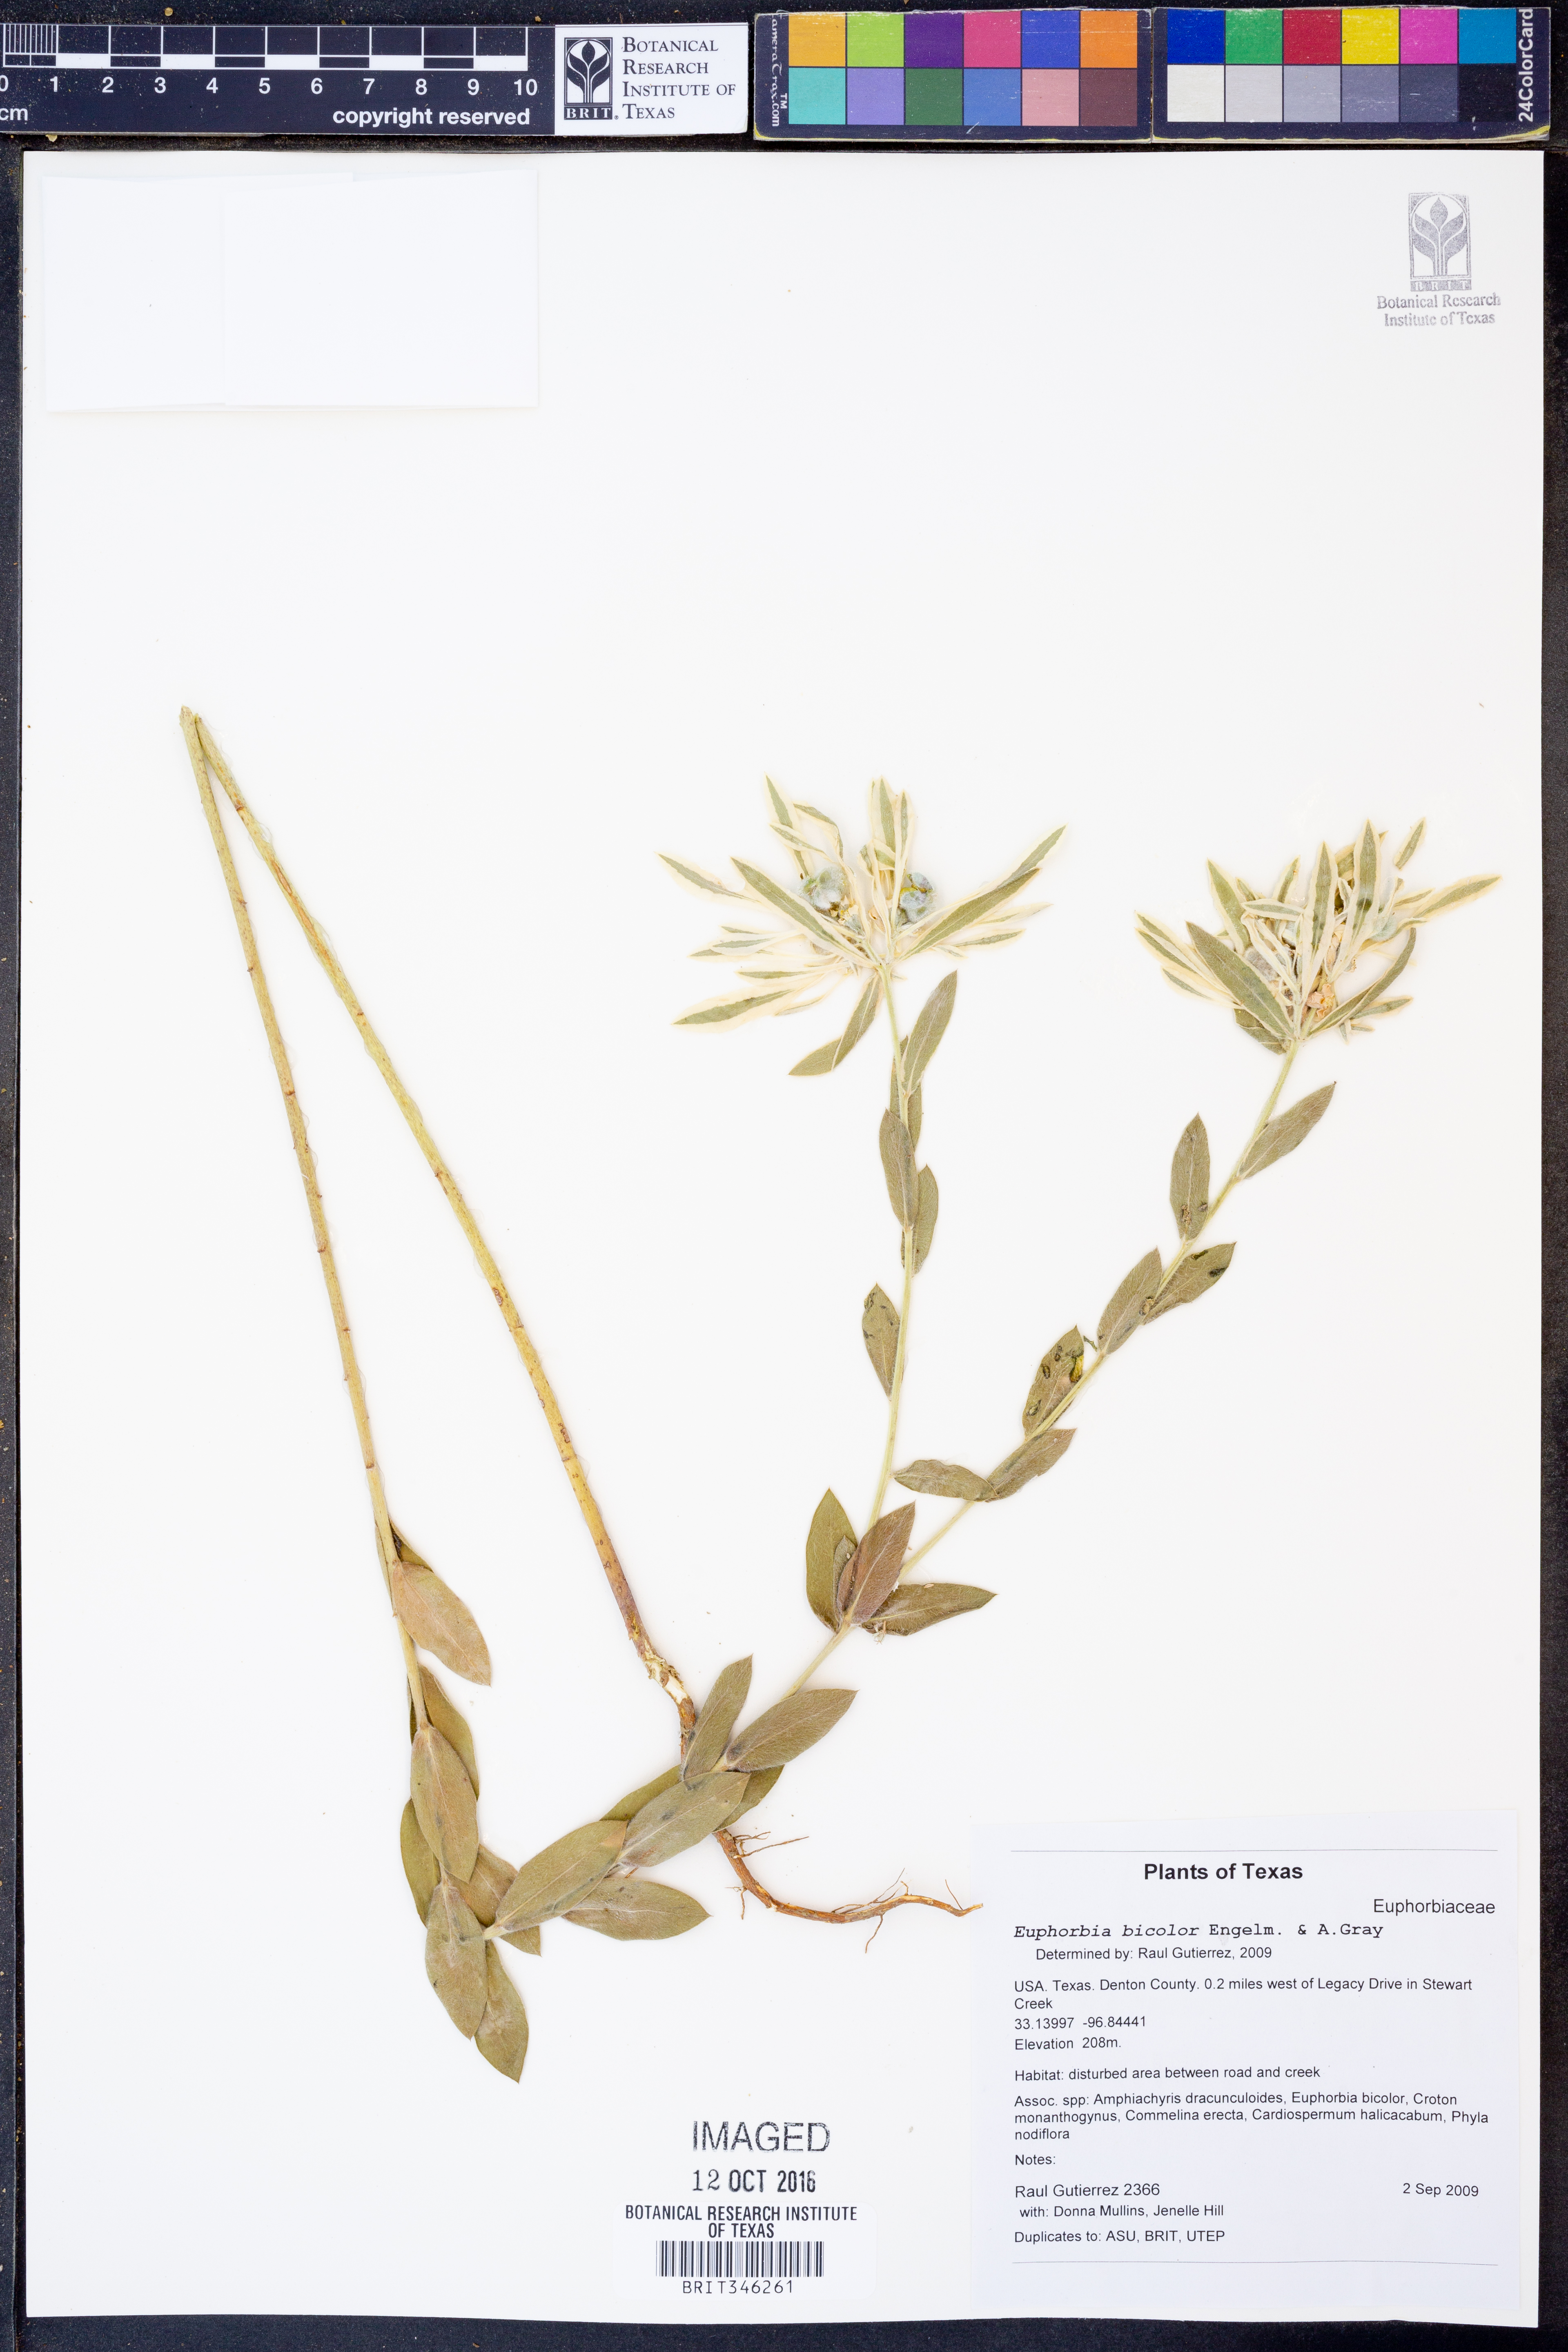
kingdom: Plantae
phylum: Tracheophyta
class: Magnoliopsida
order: Malpighiales
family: Euphorbiaceae
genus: Euphorbia
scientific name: Euphorbia bicolor
